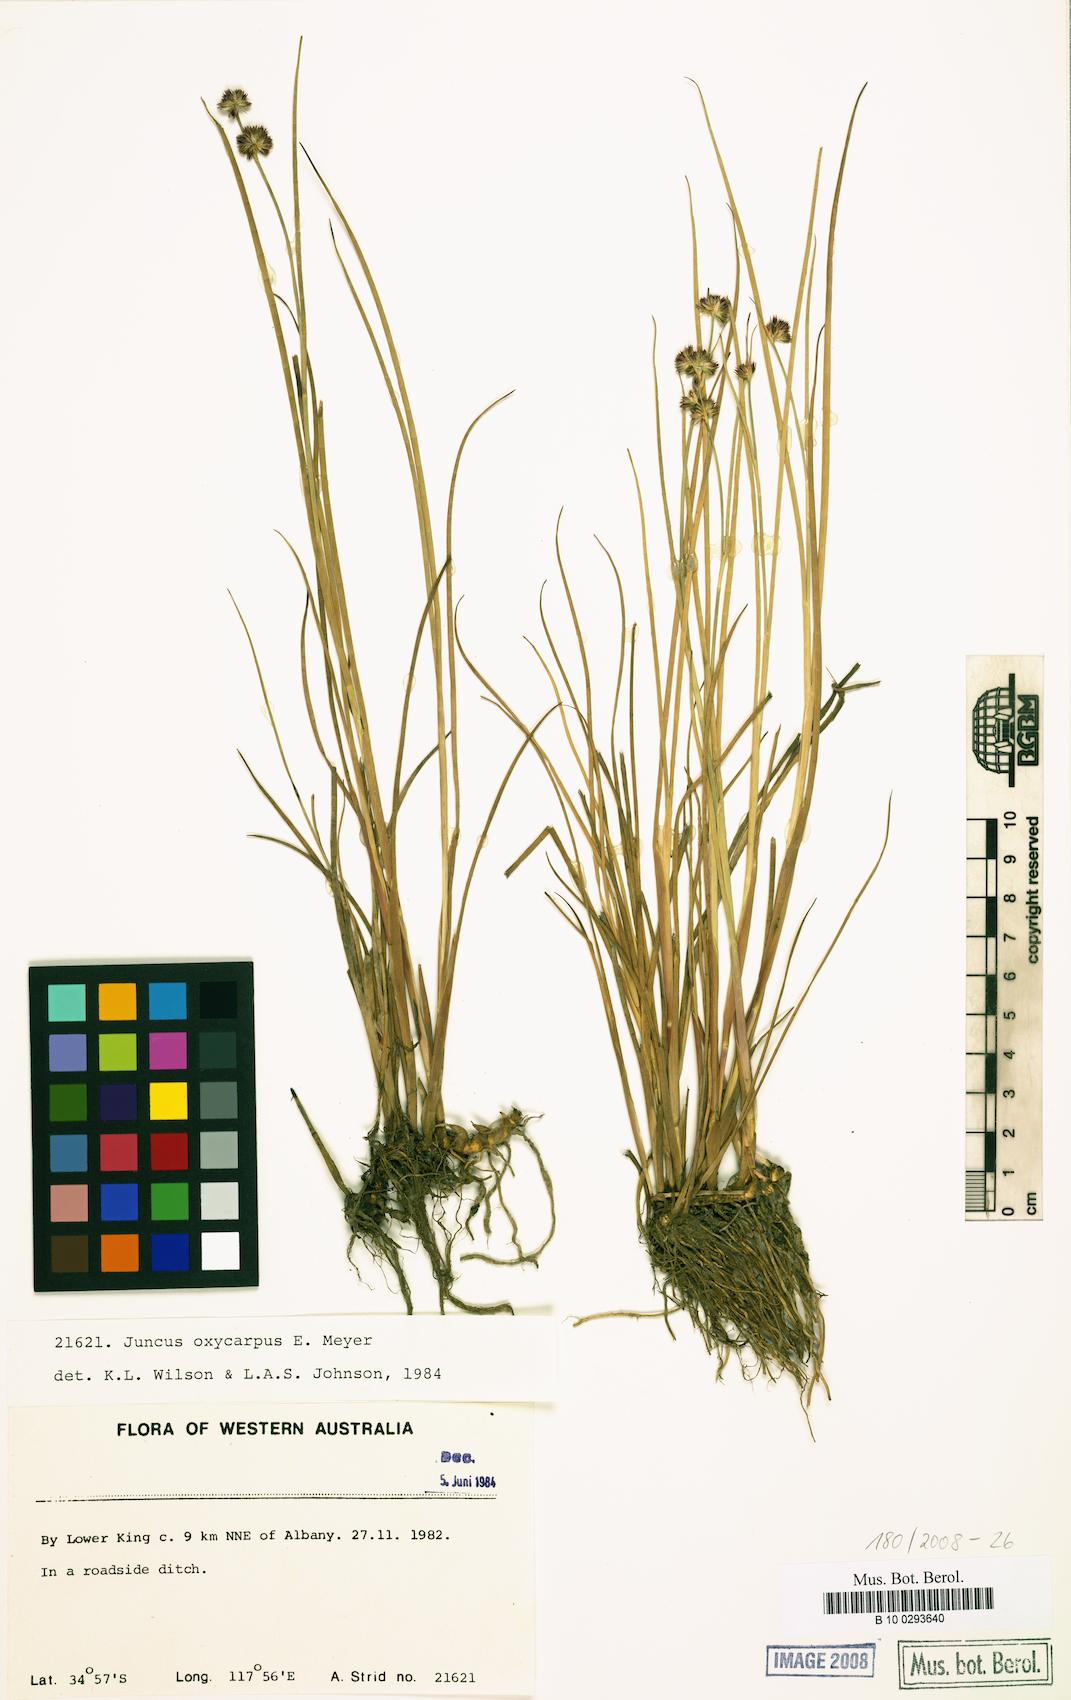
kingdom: Plantae
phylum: Tracheophyta
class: Liliopsida
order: Poales
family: Juncaceae
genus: Juncus
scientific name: Juncus oxycarpus
